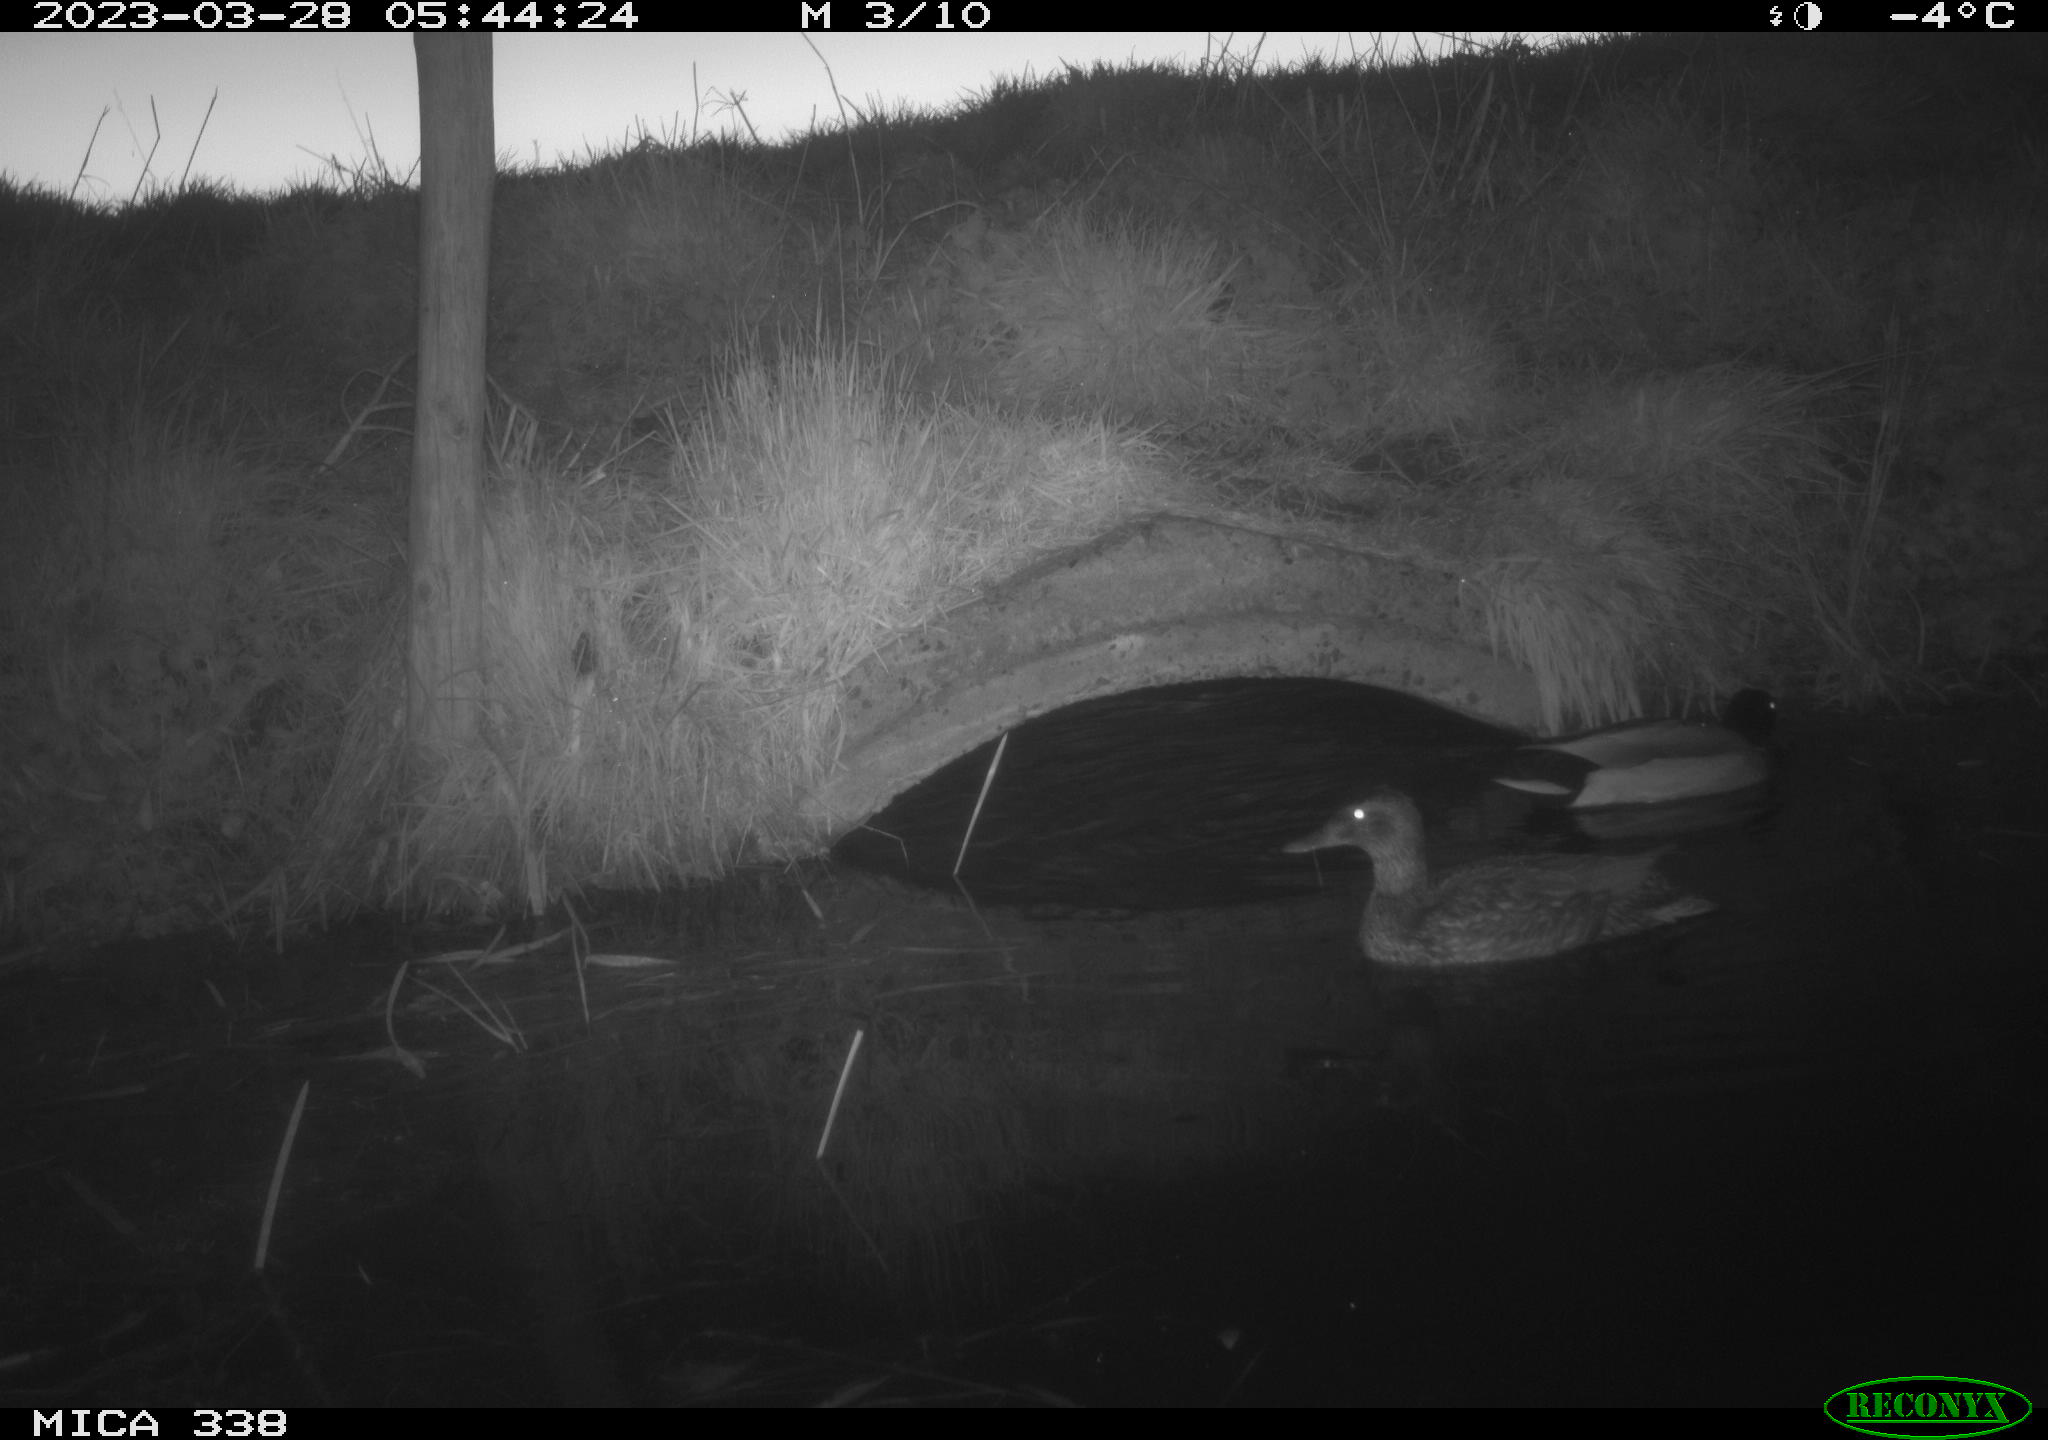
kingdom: Animalia
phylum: Chordata
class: Aves
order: Anseriformes
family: Anatidae
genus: Anas
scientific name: Anas platyrhynchos
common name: Mallard
